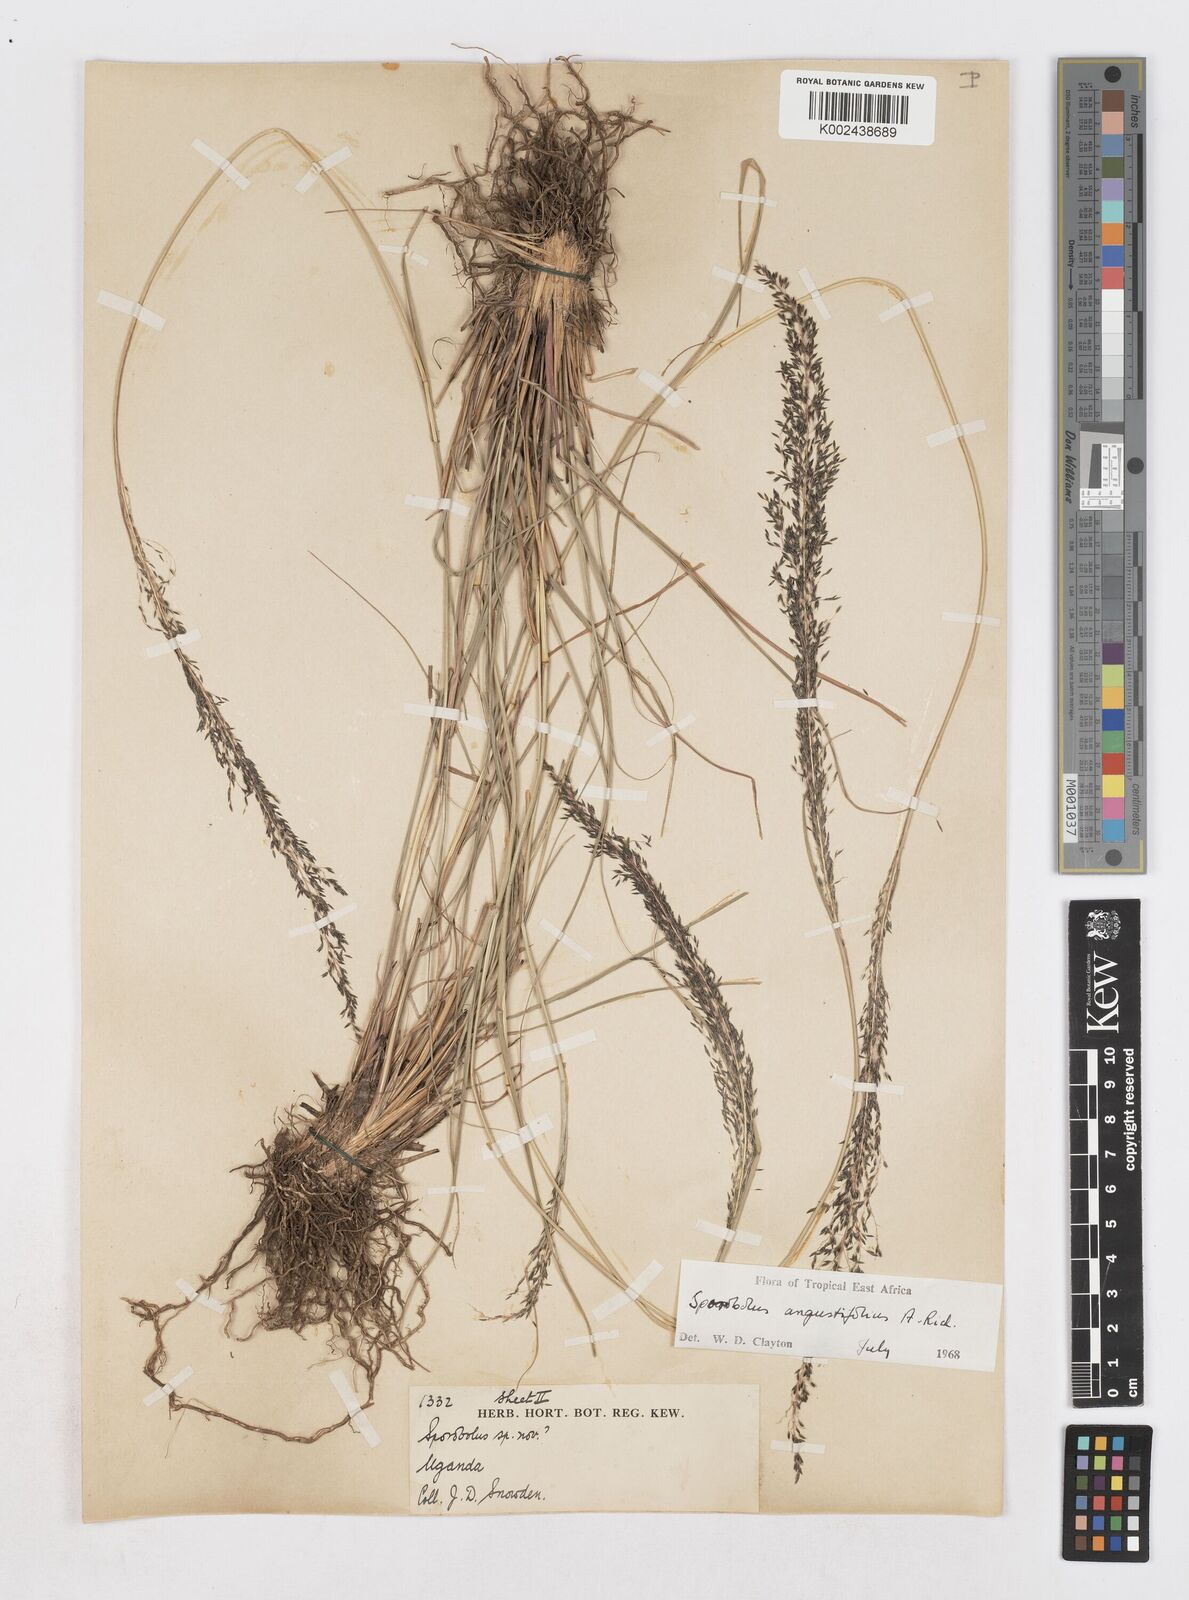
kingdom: Plantae
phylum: Tracheophyta
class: Liliopsida
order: Poales
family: Poaceae
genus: Sporobolus
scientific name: Sporobolus angustifolius
